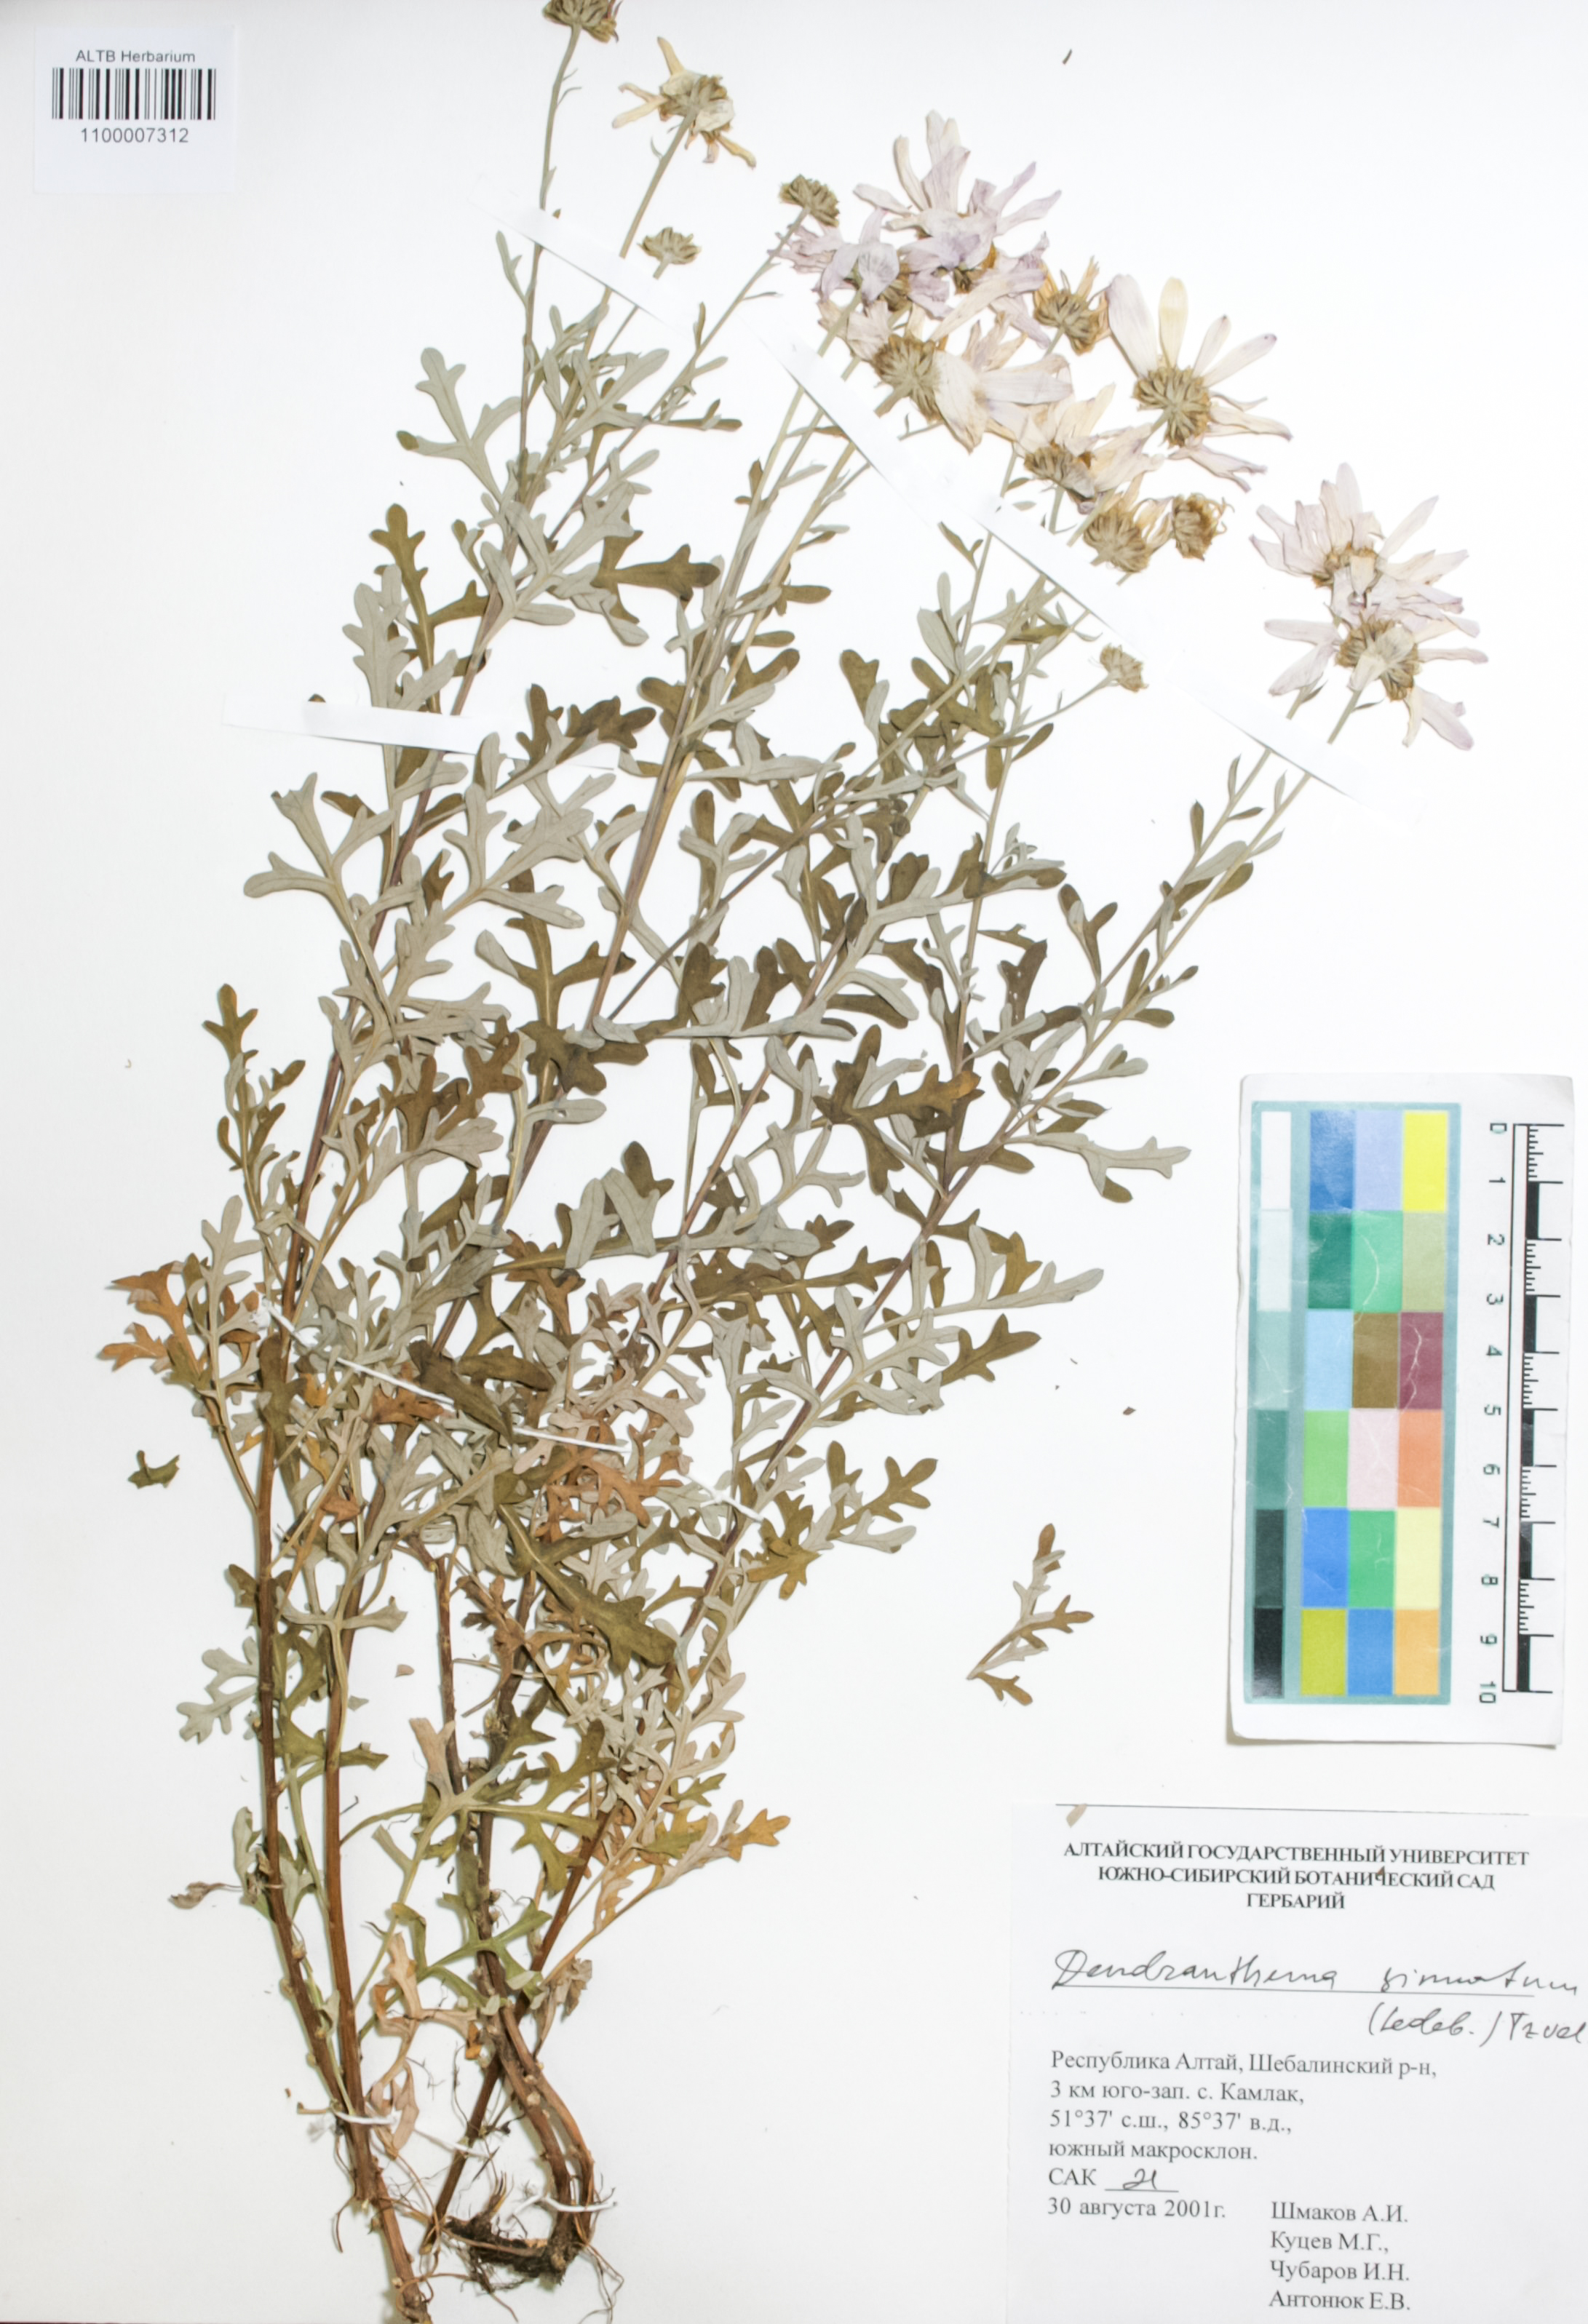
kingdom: Plantae
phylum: Tracheophyta
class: Magnoliopsida
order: Asterales
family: Asteraceae
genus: Chrysanthemum
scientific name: Chrysanthemum sinuatum
